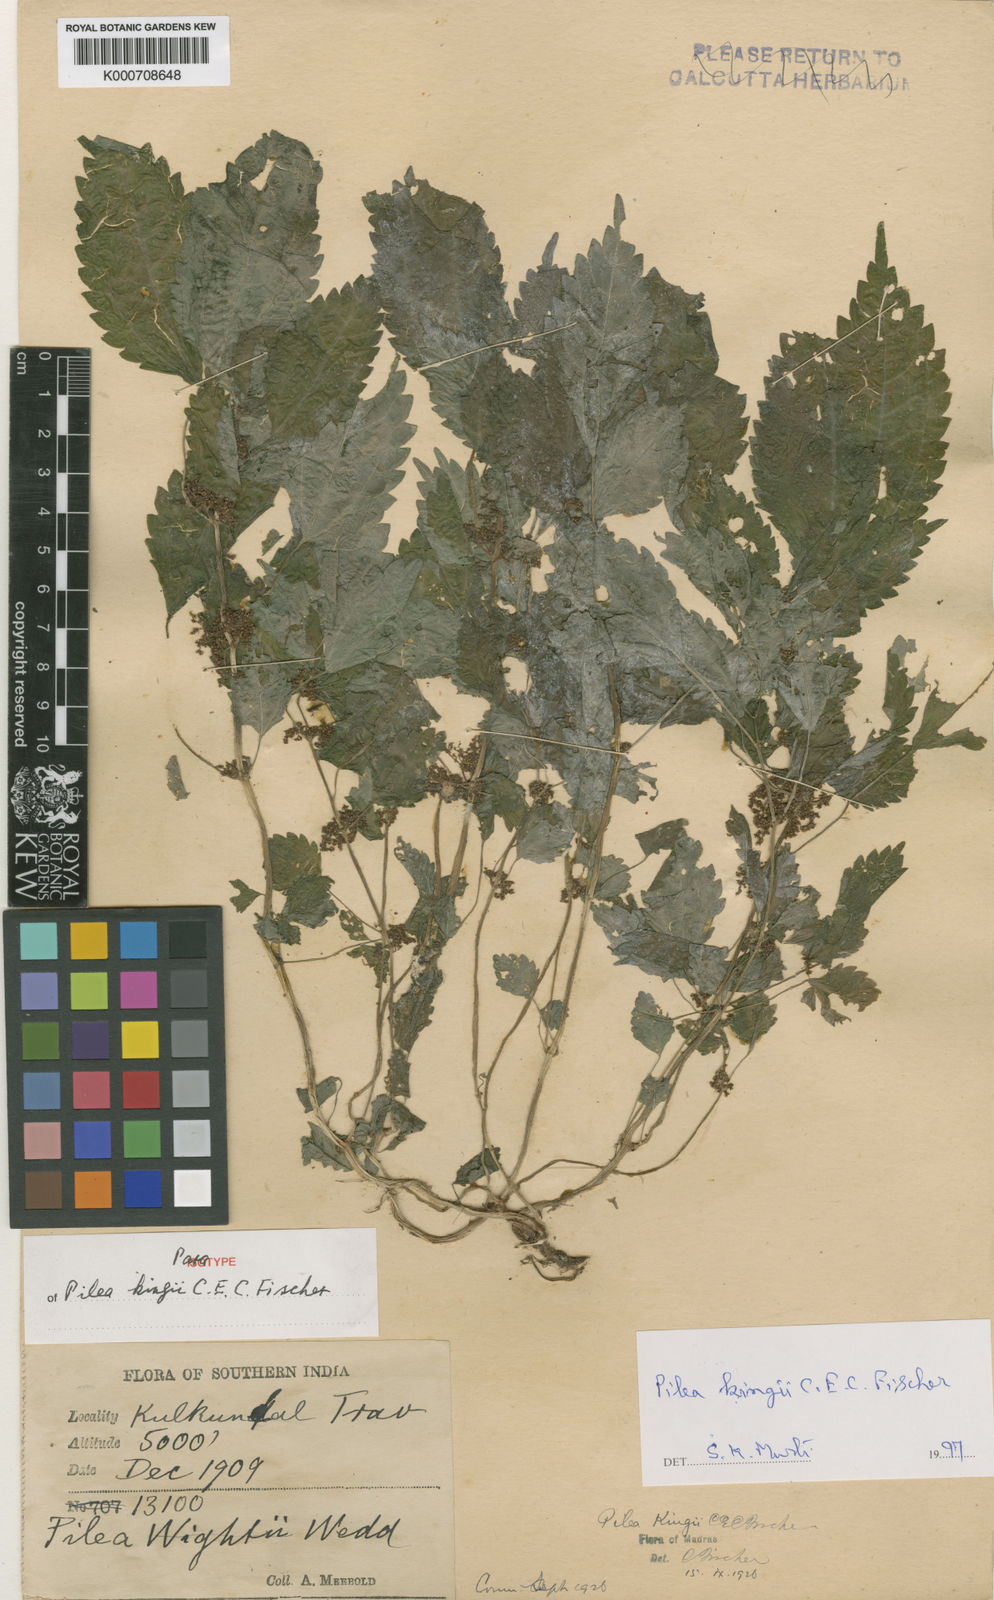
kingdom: Plantae
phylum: Tracheophyta
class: Magnoliopsida
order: Rosales
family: Urticaceae
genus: Pilea
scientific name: Pilea obesa
